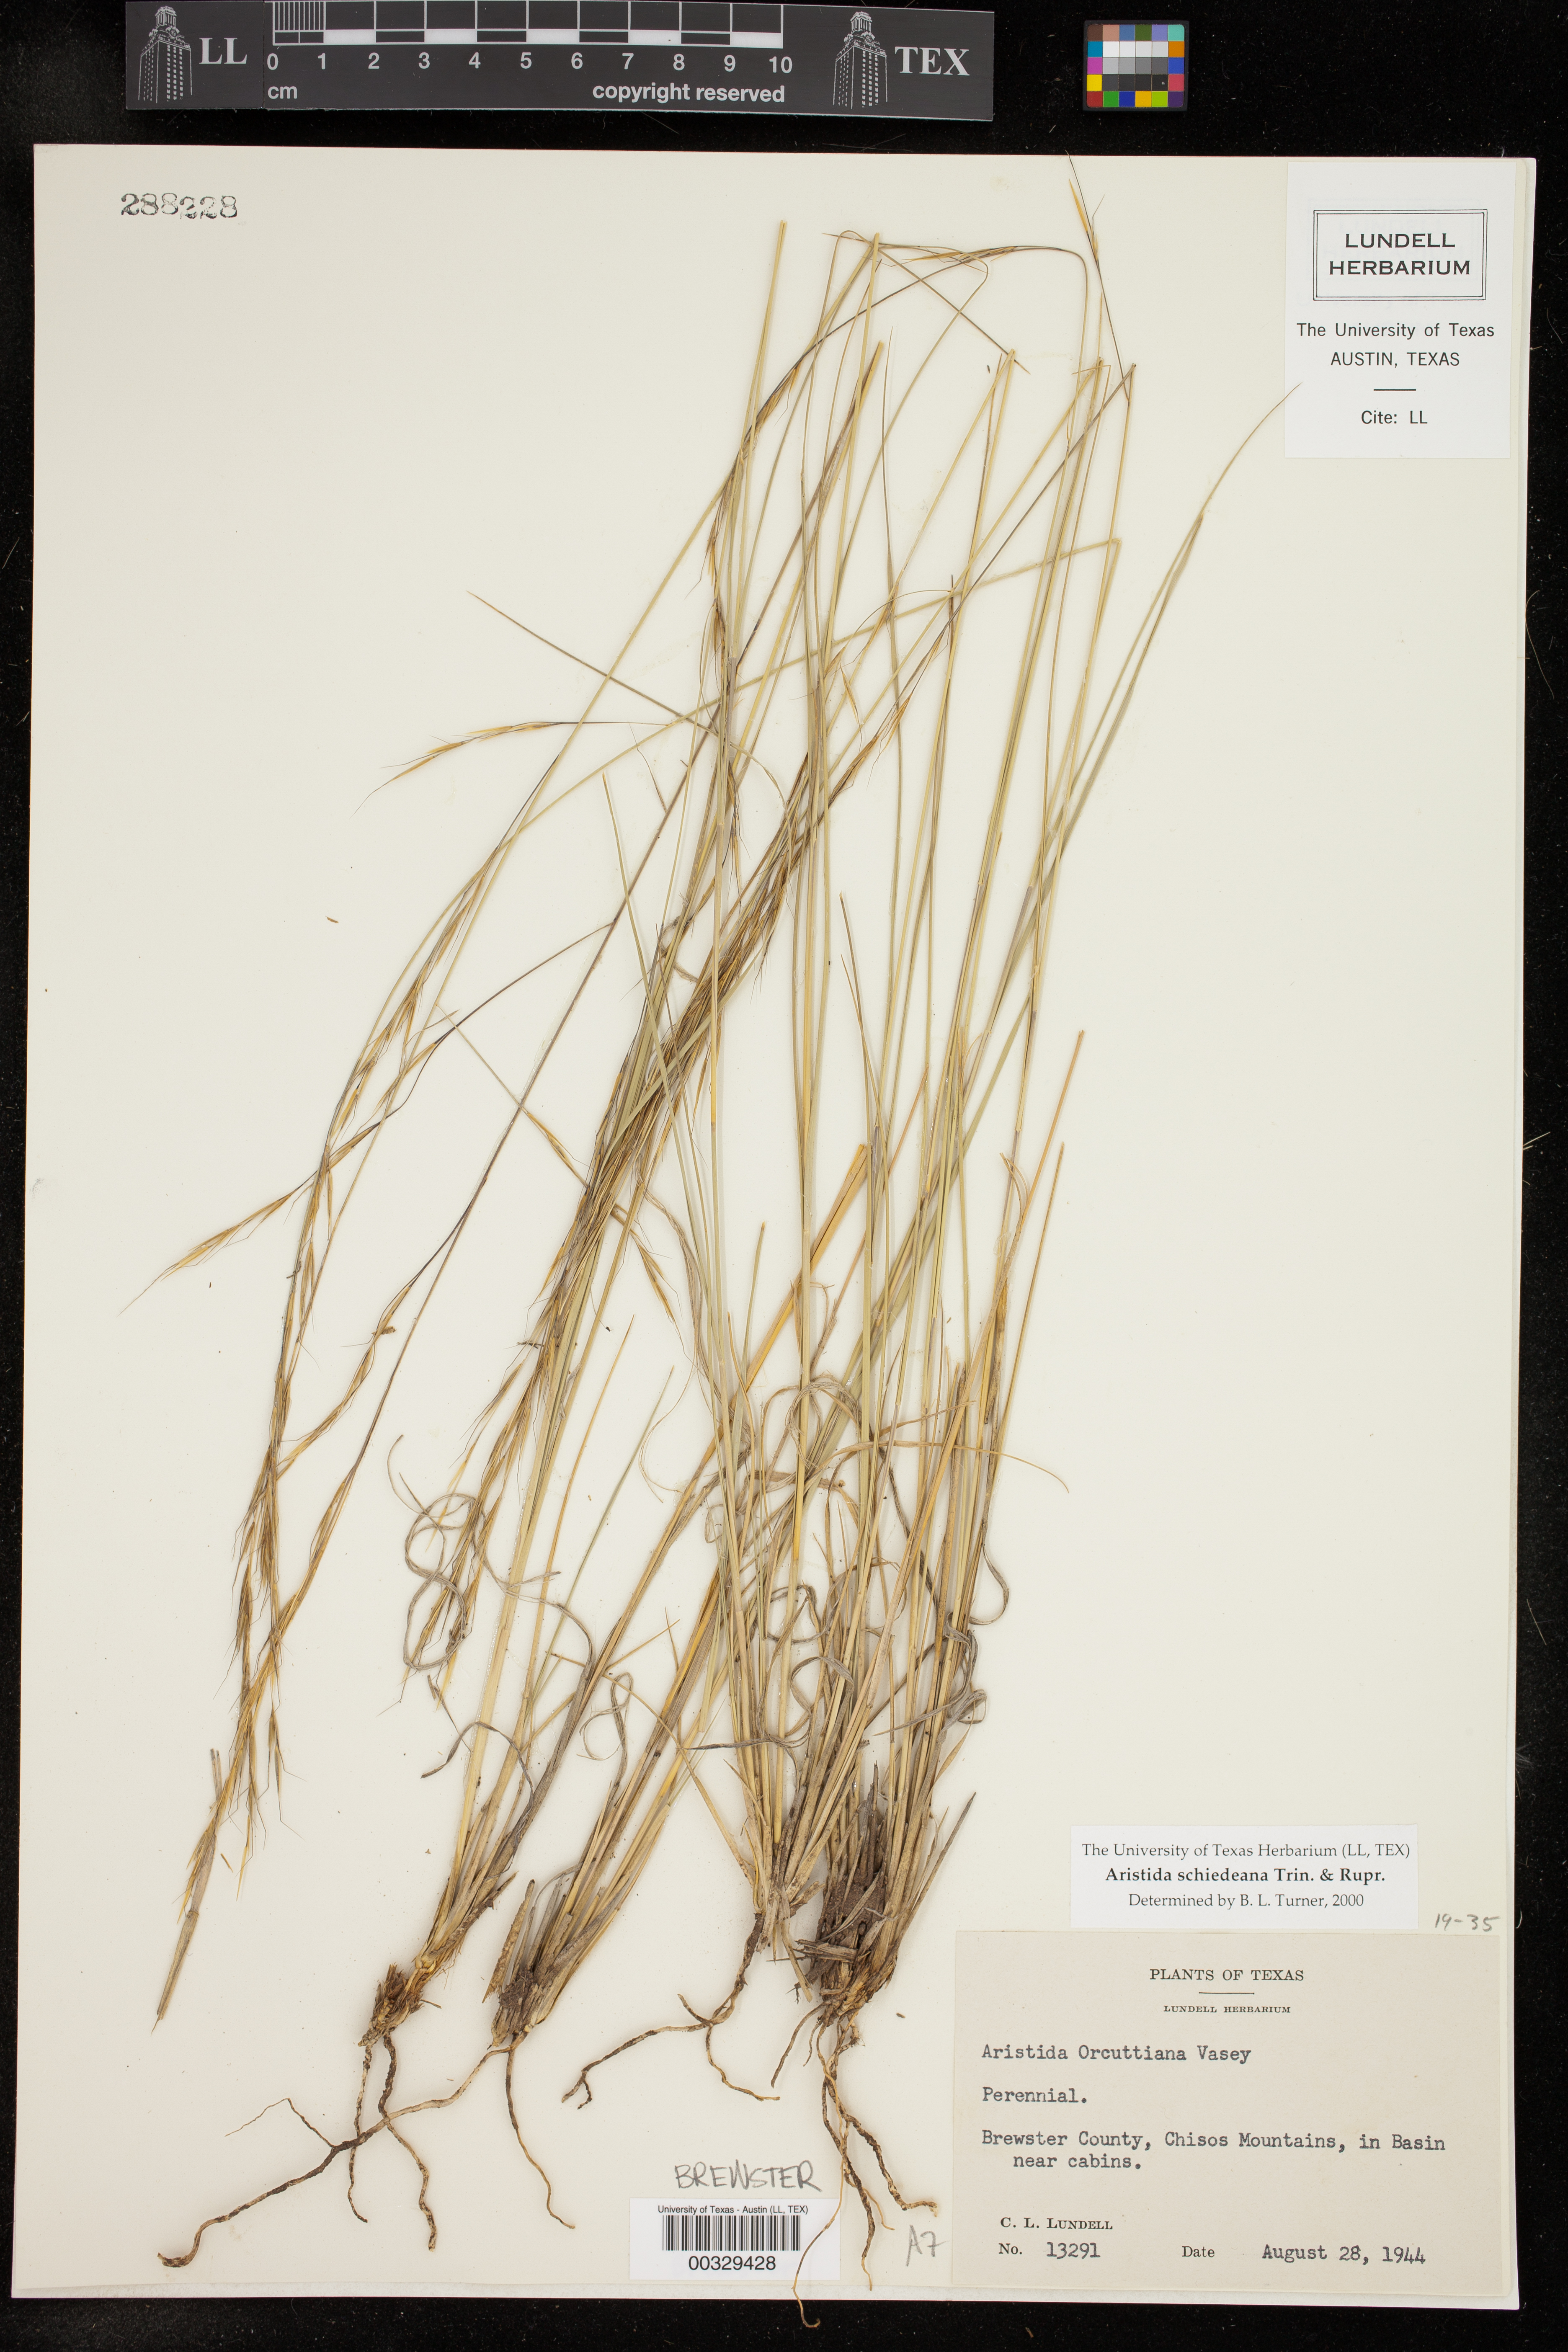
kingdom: Plantae
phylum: Tracheophyta
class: Liliopsida
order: Poales
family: Poaceae
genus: Aristida
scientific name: Aristida schiedeana
